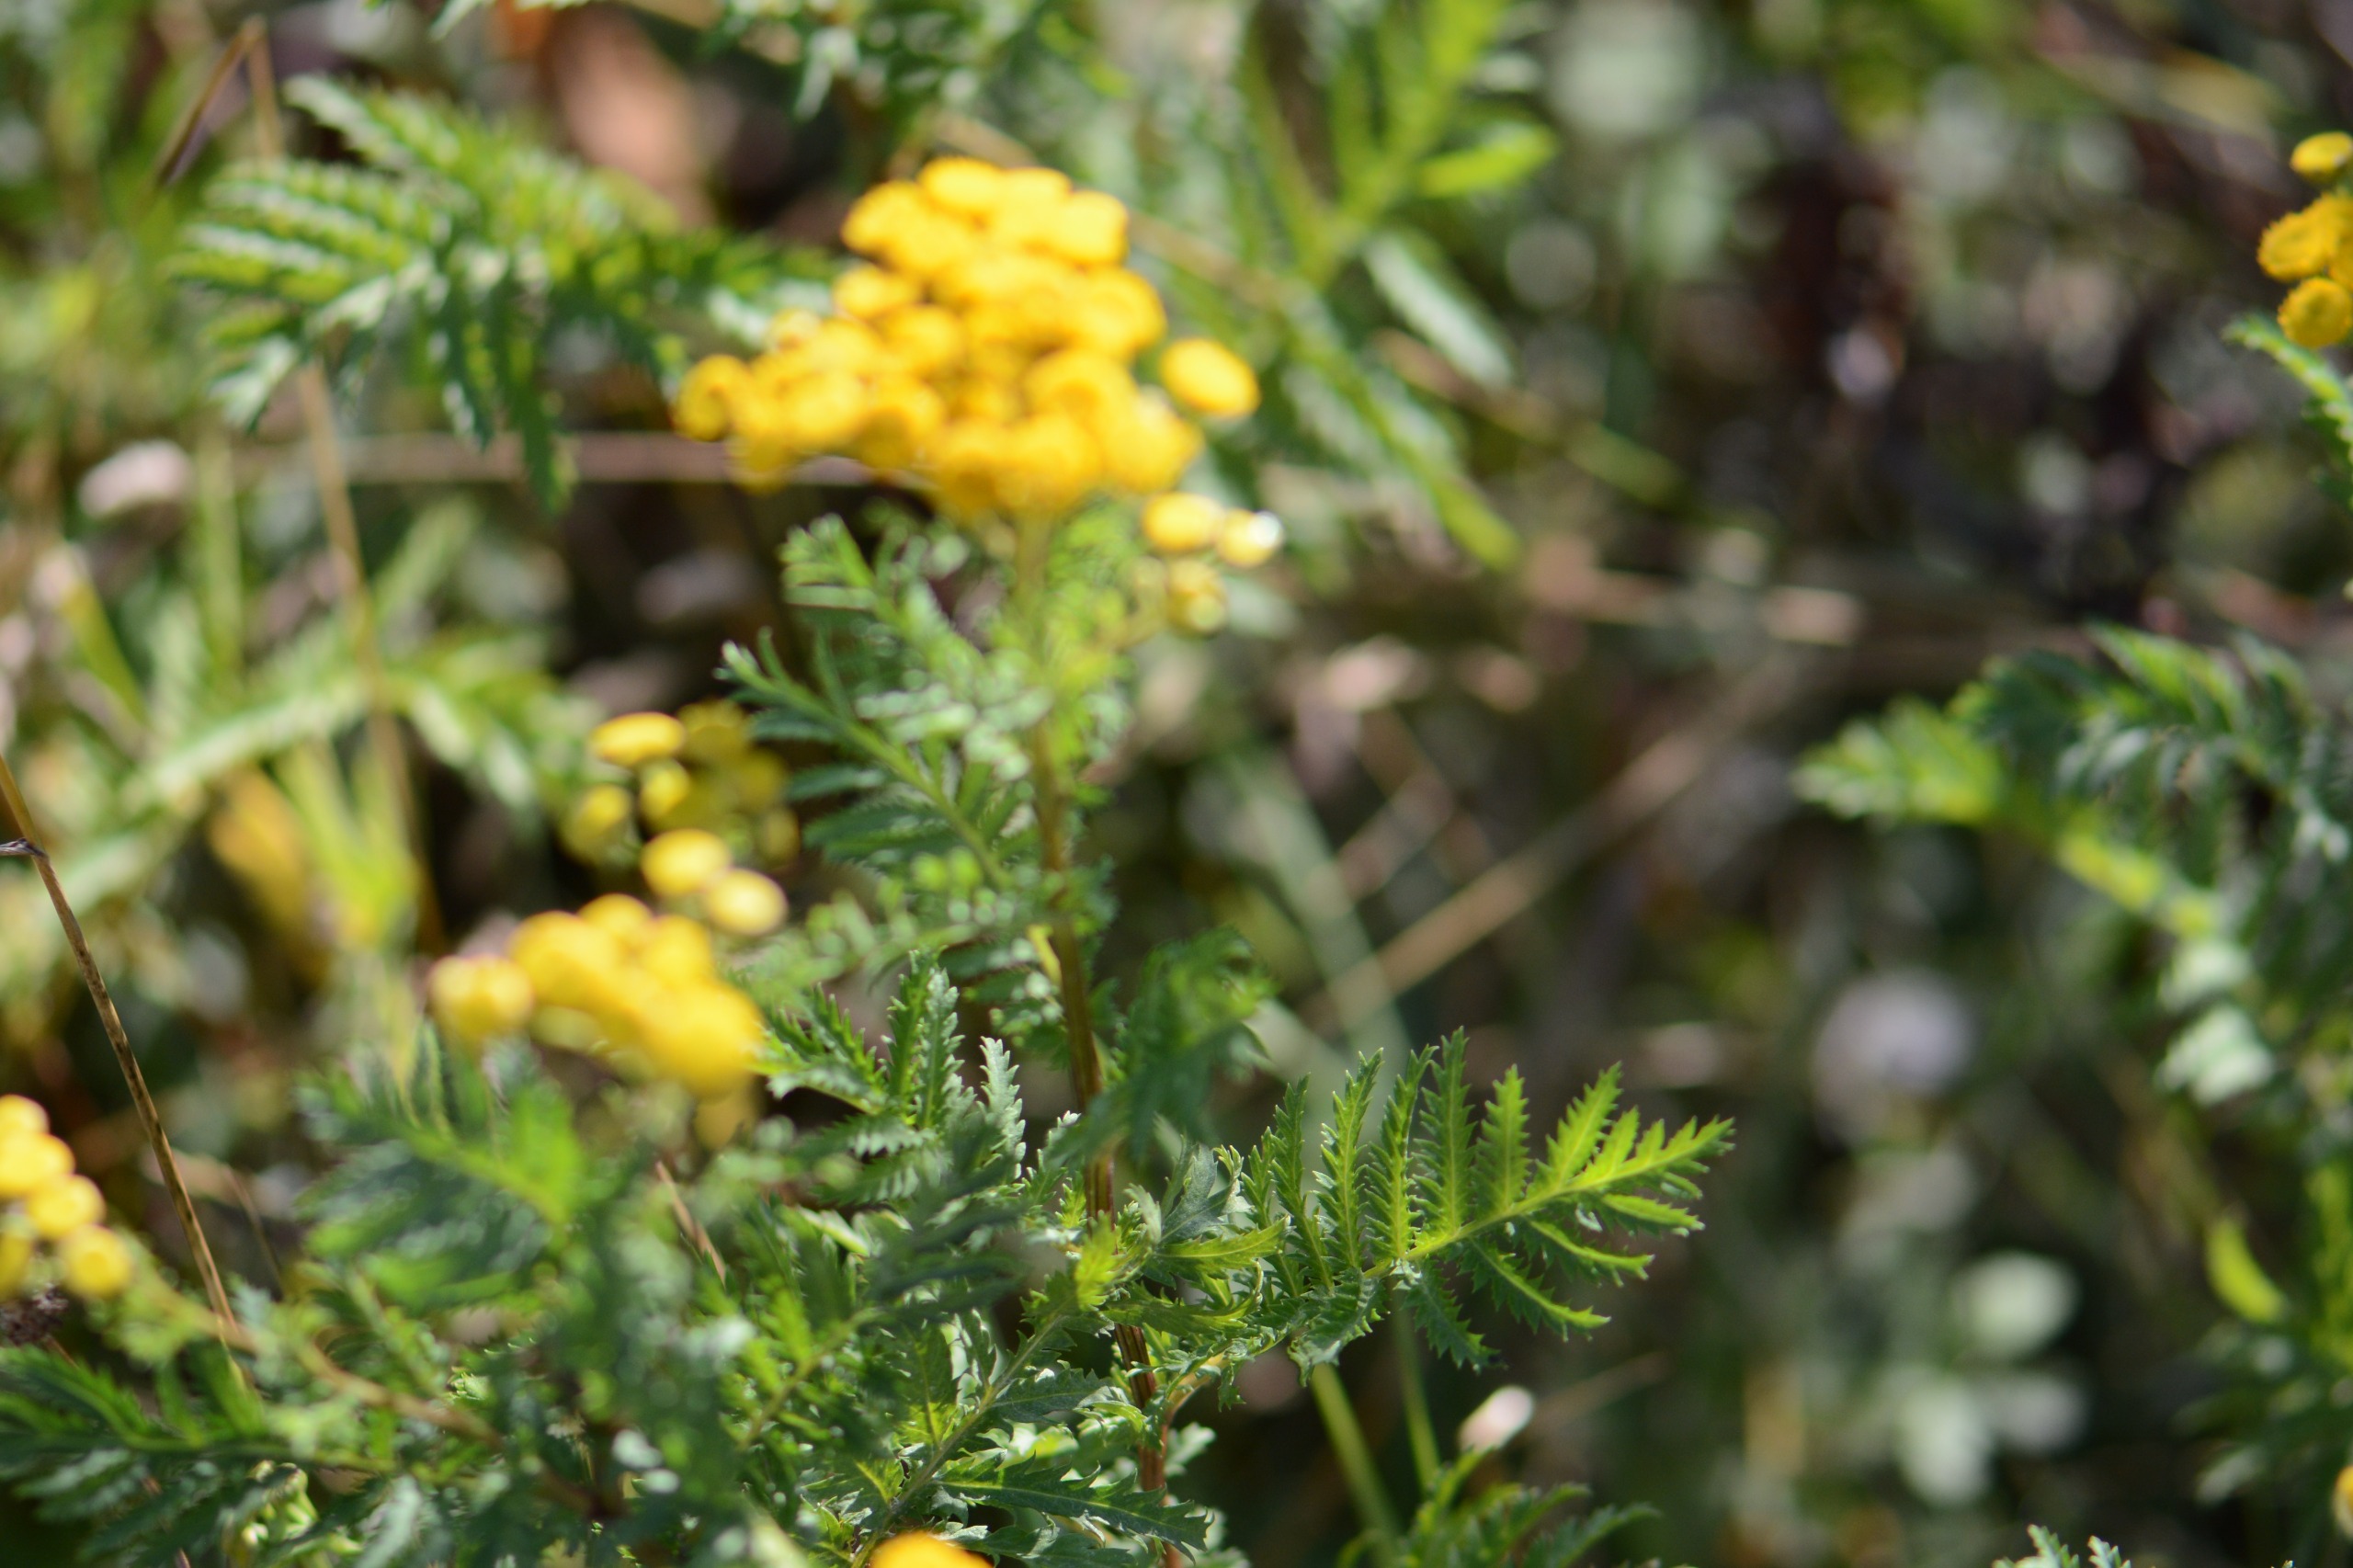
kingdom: Plantae
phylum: Tracheophyta
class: Magnoliopsida
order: Asterales
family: Asteraceae
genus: Tanacetum
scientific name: Tanacetum vulgare
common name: Rejnfan
